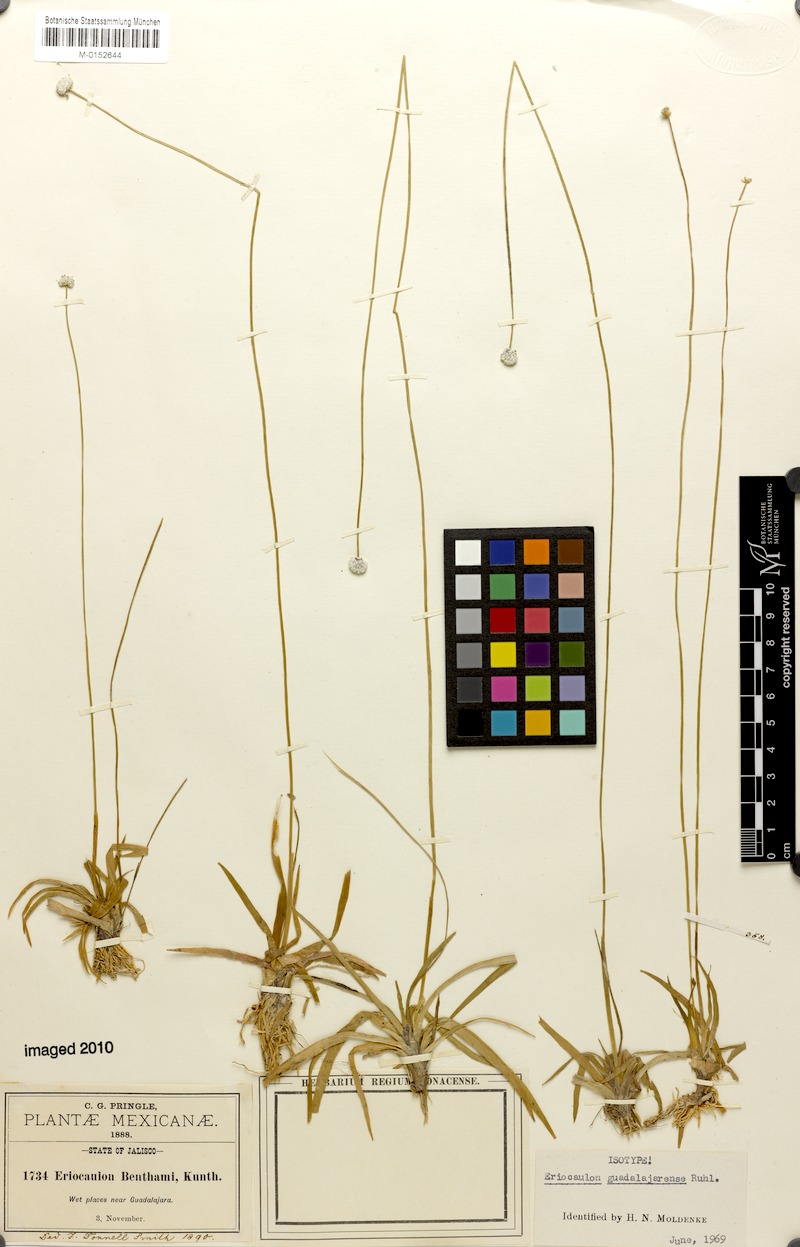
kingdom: Plantae
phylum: Tracheophyta
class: Liliopsida
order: Poales
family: Eriocaulaceae
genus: Eriocaulon
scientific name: Eriocaulon benthamii
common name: Bentham's pipewort
